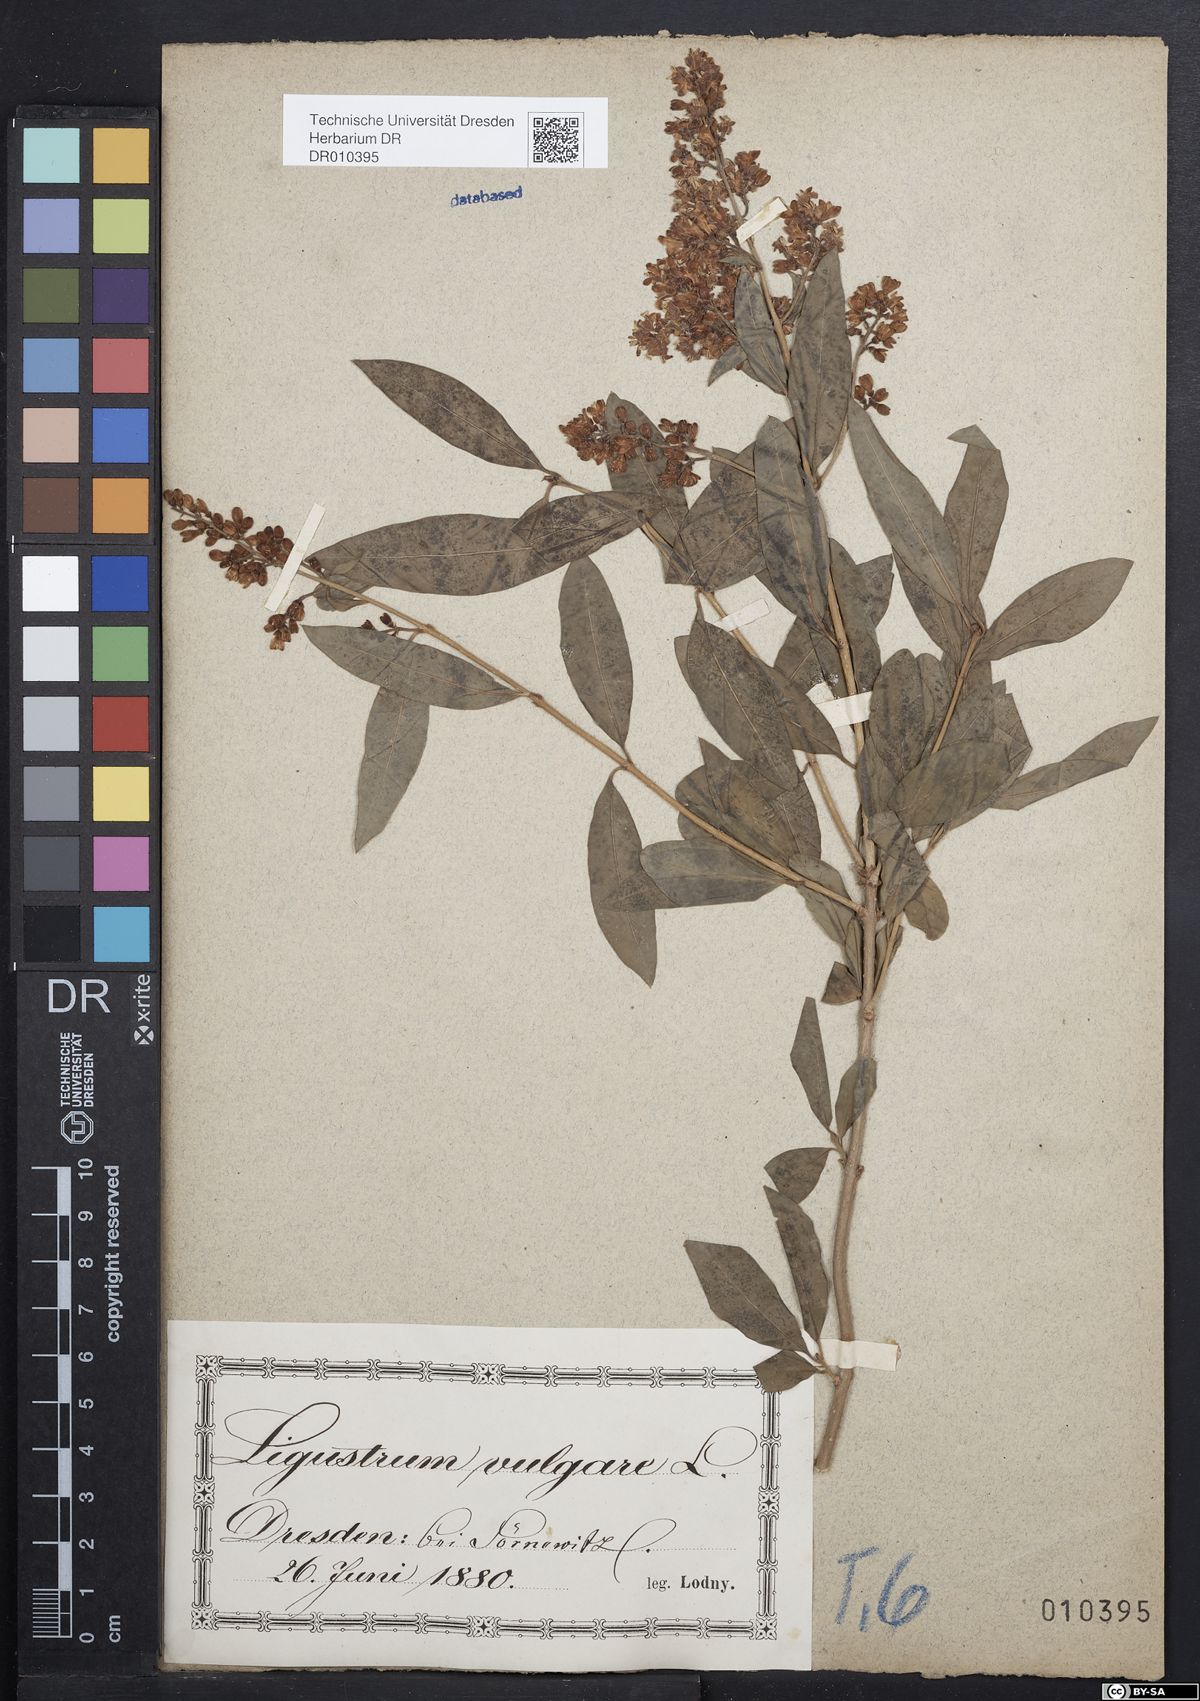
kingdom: Plantae
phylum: Tracheophyta
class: Magnoliopsida
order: Lamiales
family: Oleaceae
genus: Ligustrum
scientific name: Ligustrum vulgare
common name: Wild privet
